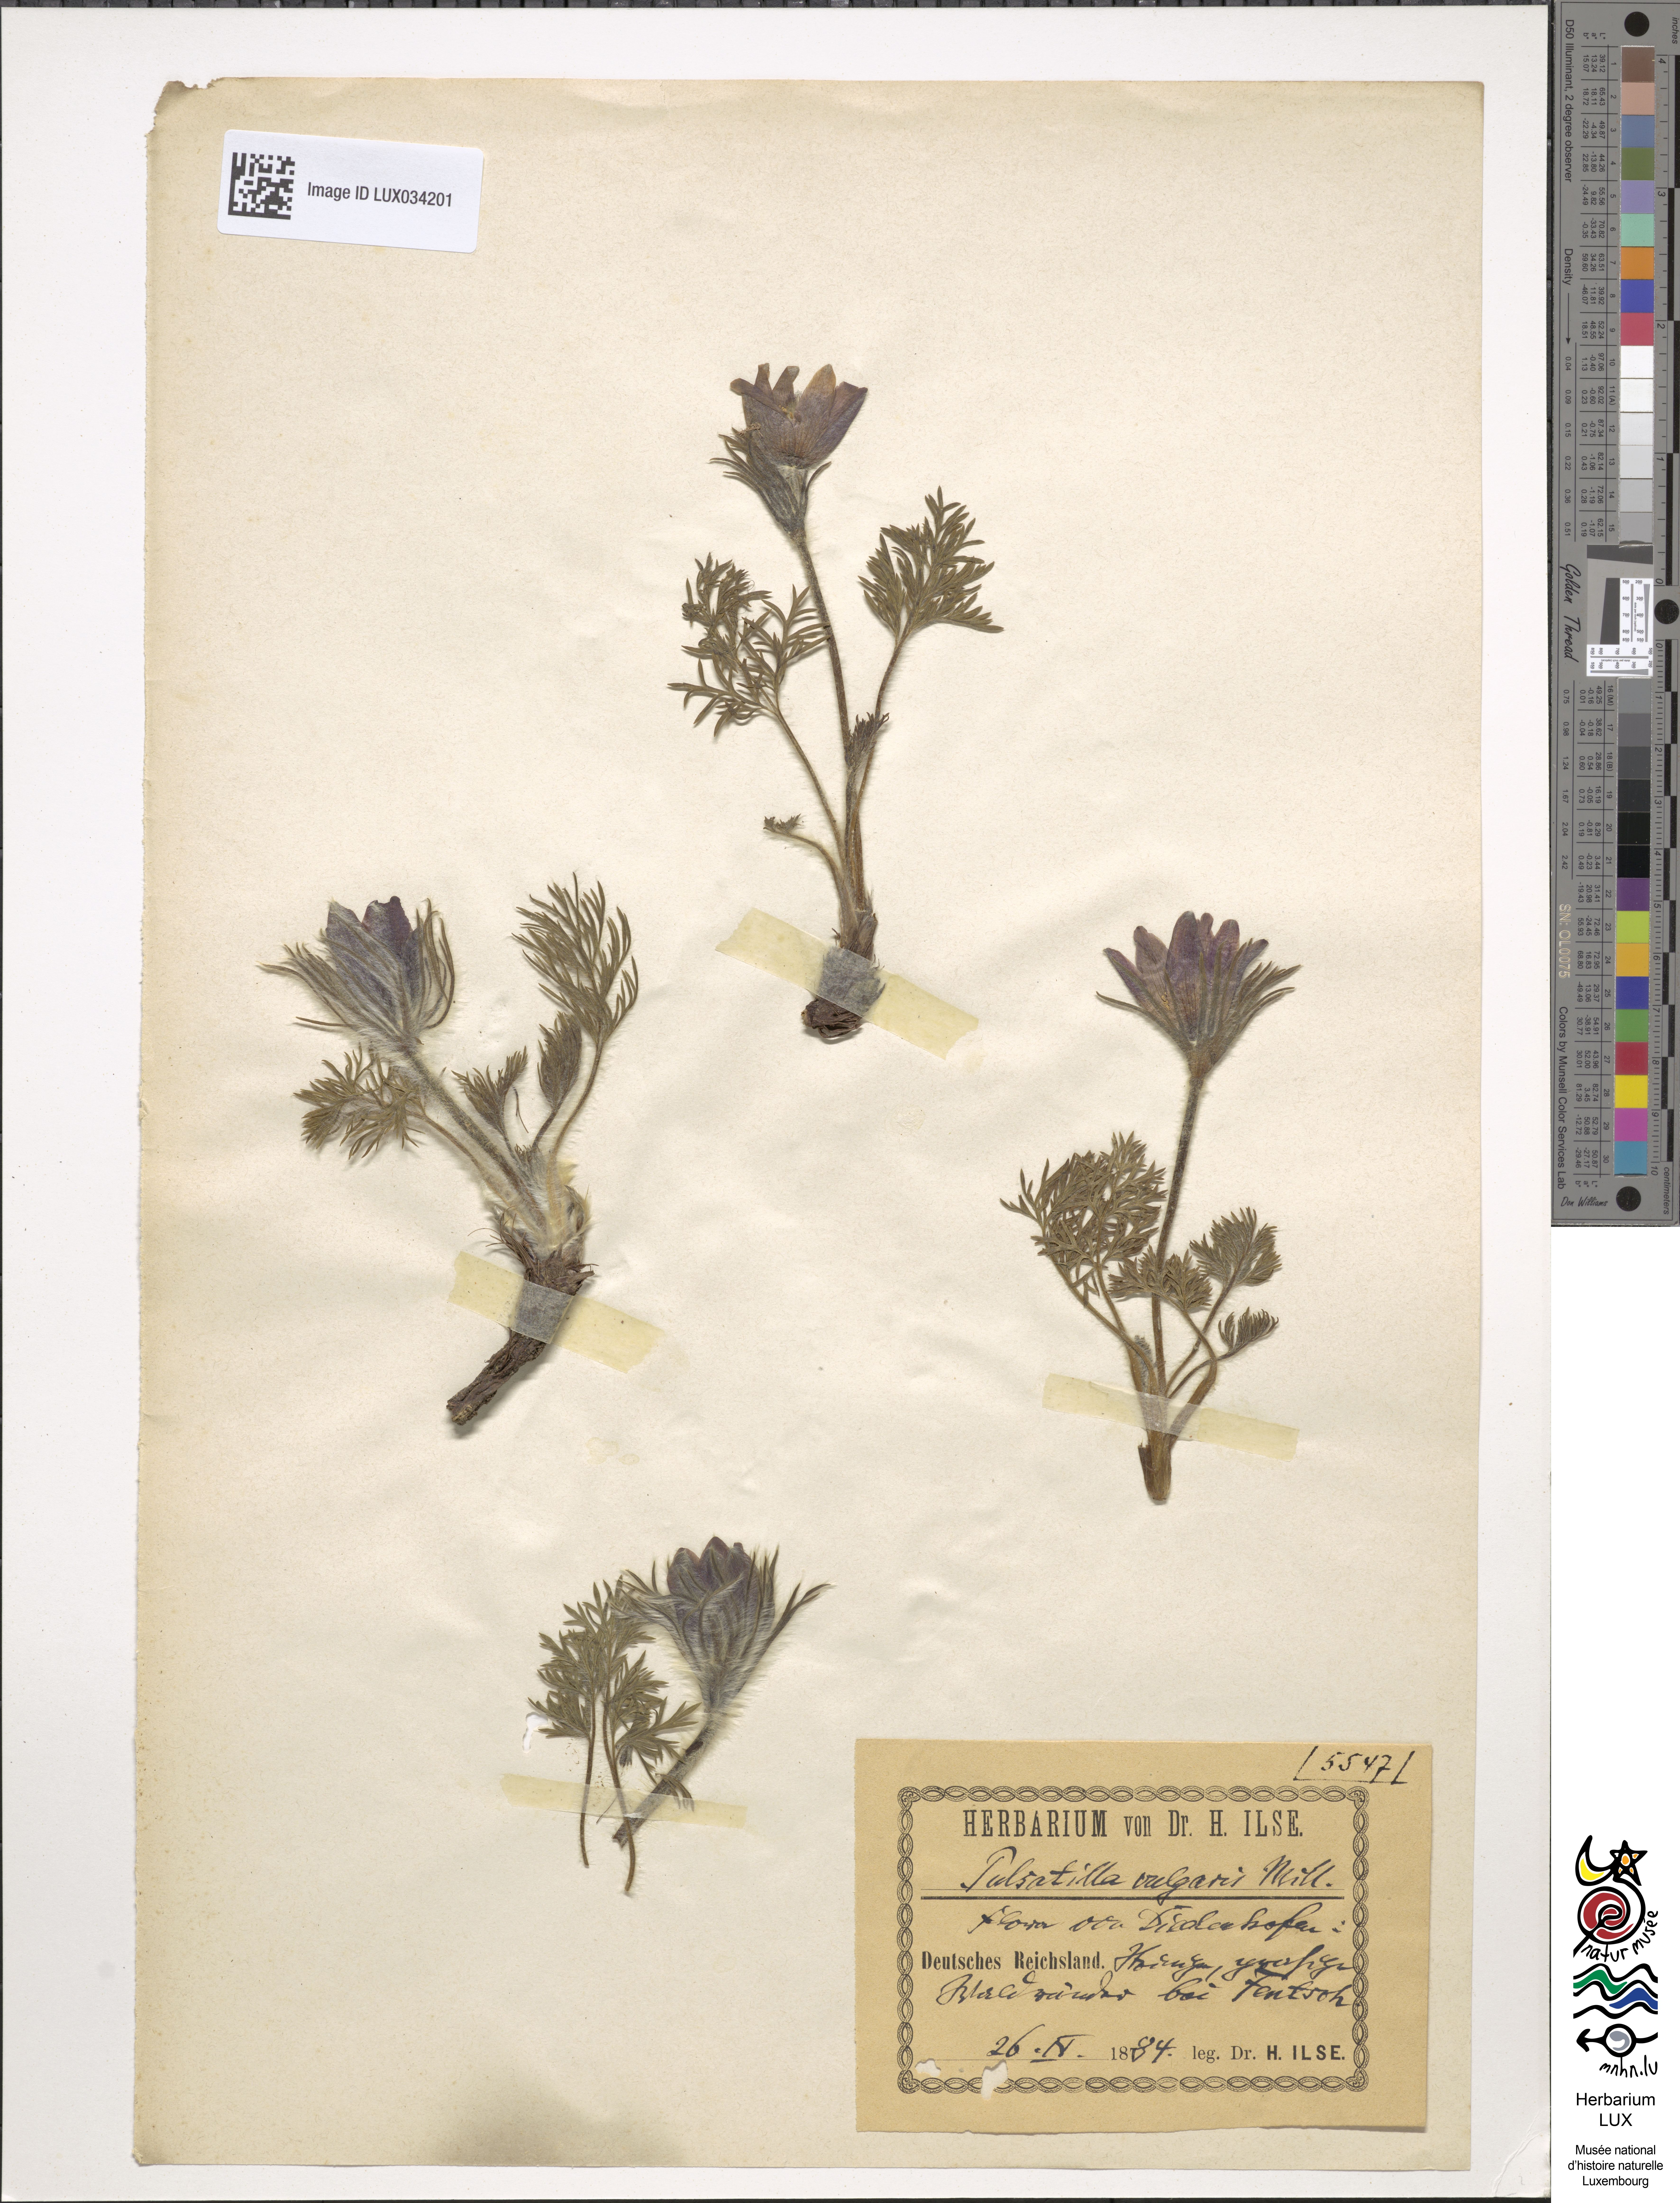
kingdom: Plantae
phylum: Tracheophyta
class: Magnoliopsida
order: Ranunculales
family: Ranunculaceae
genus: Pulsatilla
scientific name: Pulsatilla vulgaris
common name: Pasqueflower
